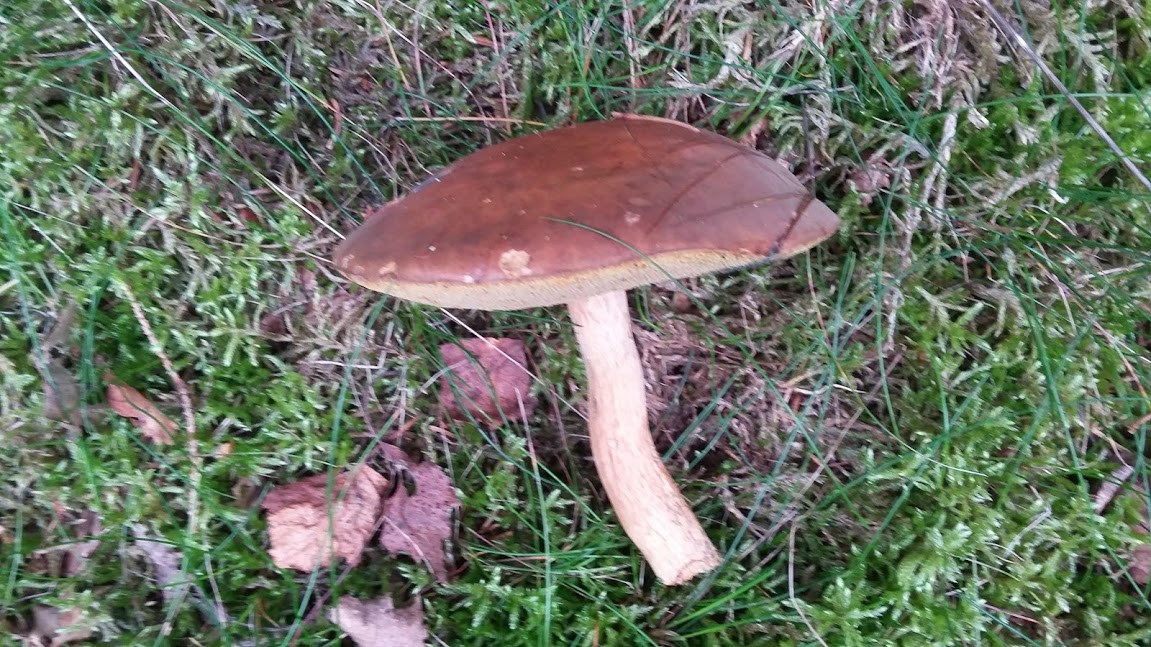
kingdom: Fungi
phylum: Basidiomycota
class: Agaricomycetes
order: Boletales
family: Boletaceae
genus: Imleria
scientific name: Imleria badia
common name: brunstokket rørhat
